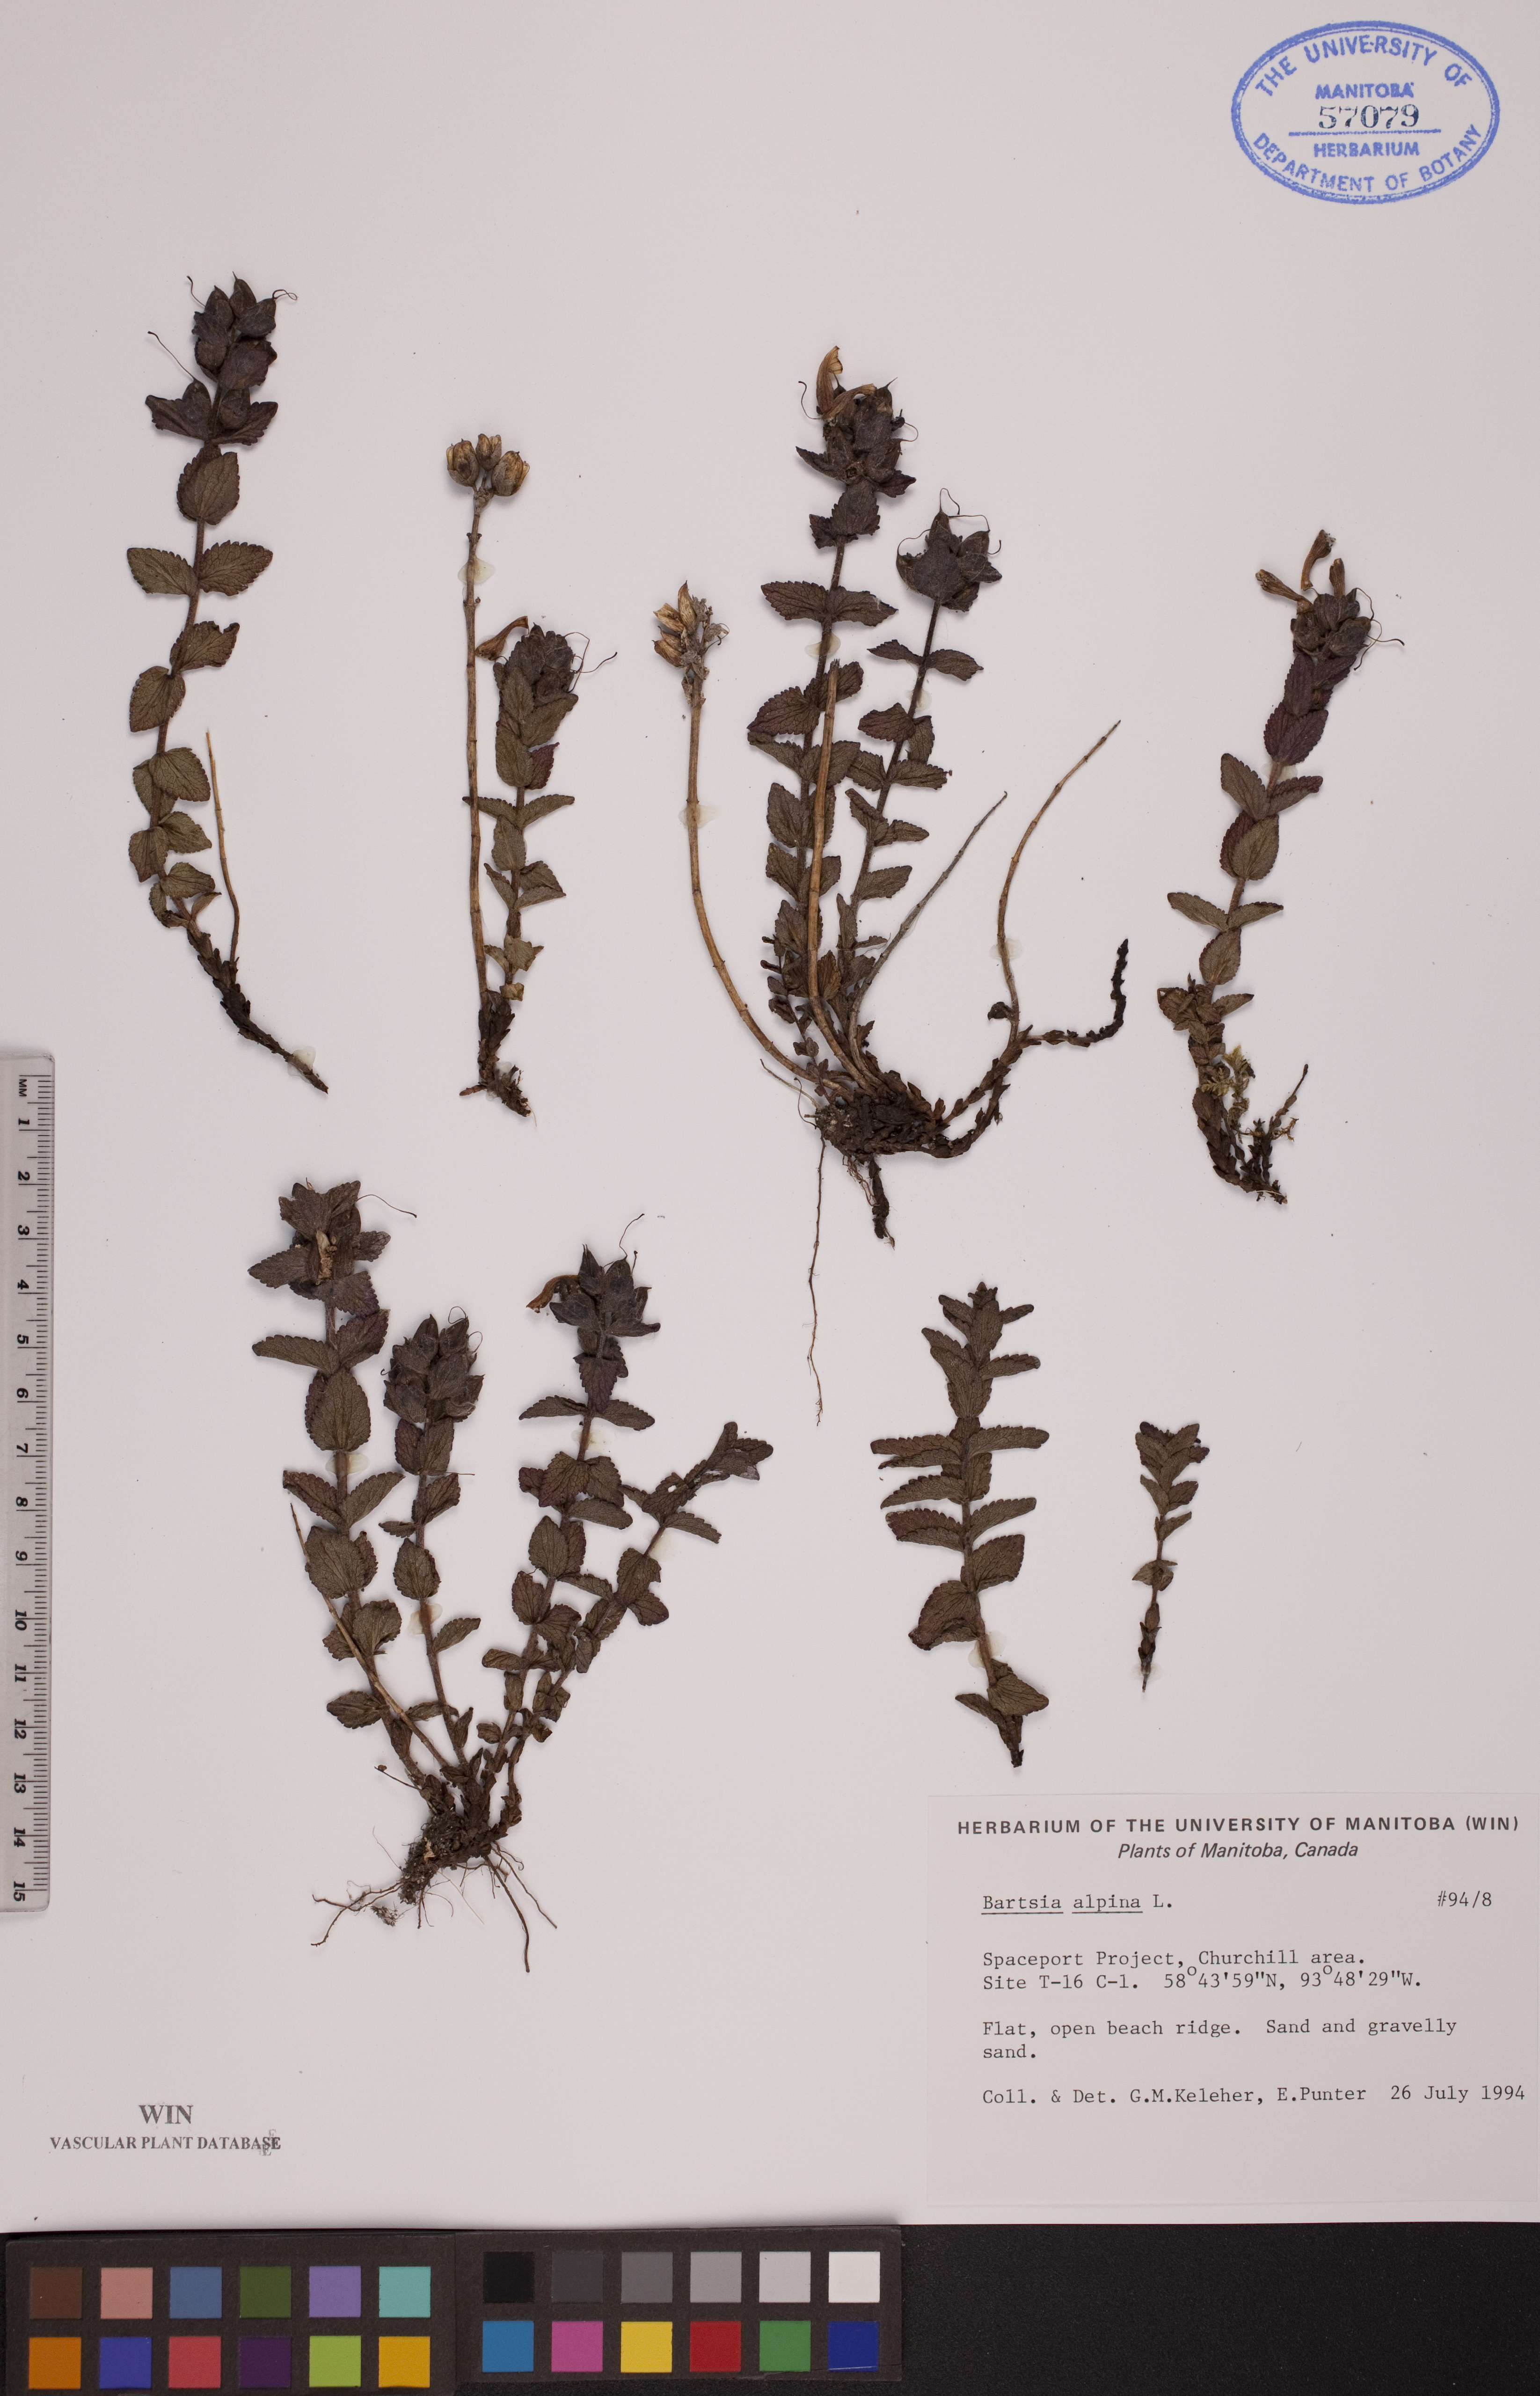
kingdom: Plantae
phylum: Tracheophyta
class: Magnoliopsida
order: Lamiales
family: Orobanchaceae
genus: Bartsia
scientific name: Bartsia alpina
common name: Alpine bartsia
